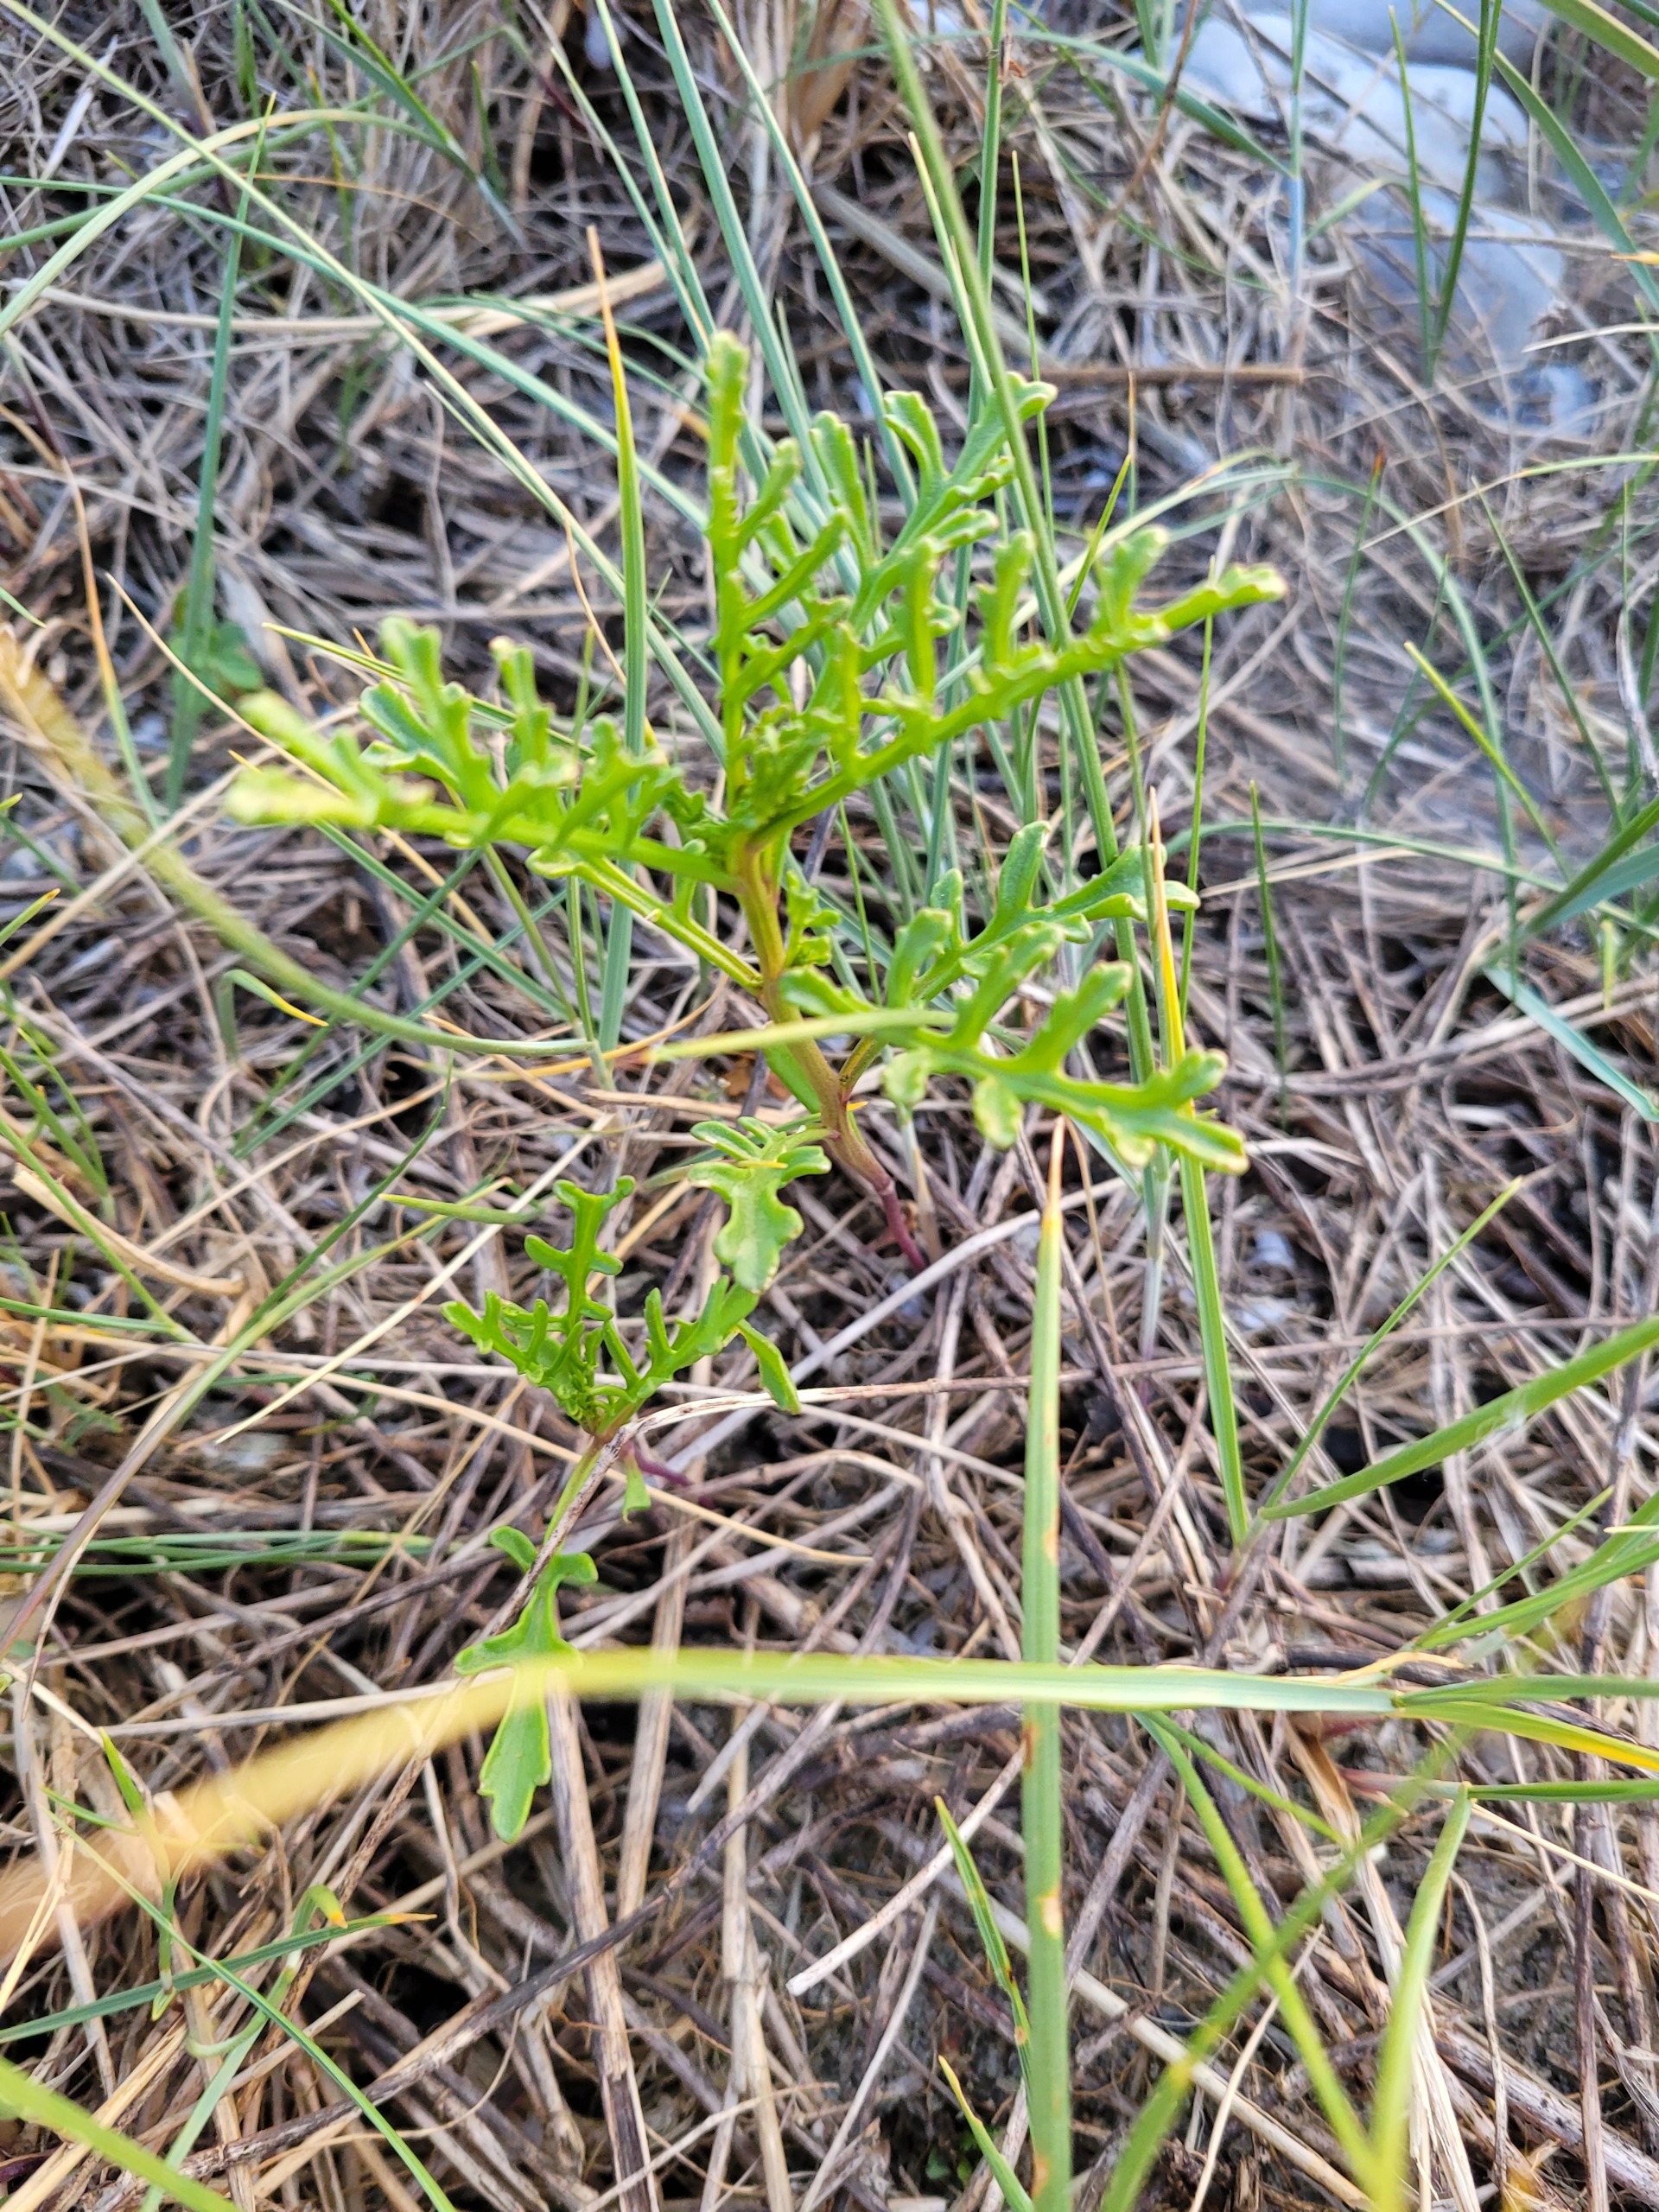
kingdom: Plantae
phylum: Tracheophyta
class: Magnoliopsida
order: Brassicales
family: Brassicaceae
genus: Cakile
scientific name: Cakile maritima
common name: Strandsennep
